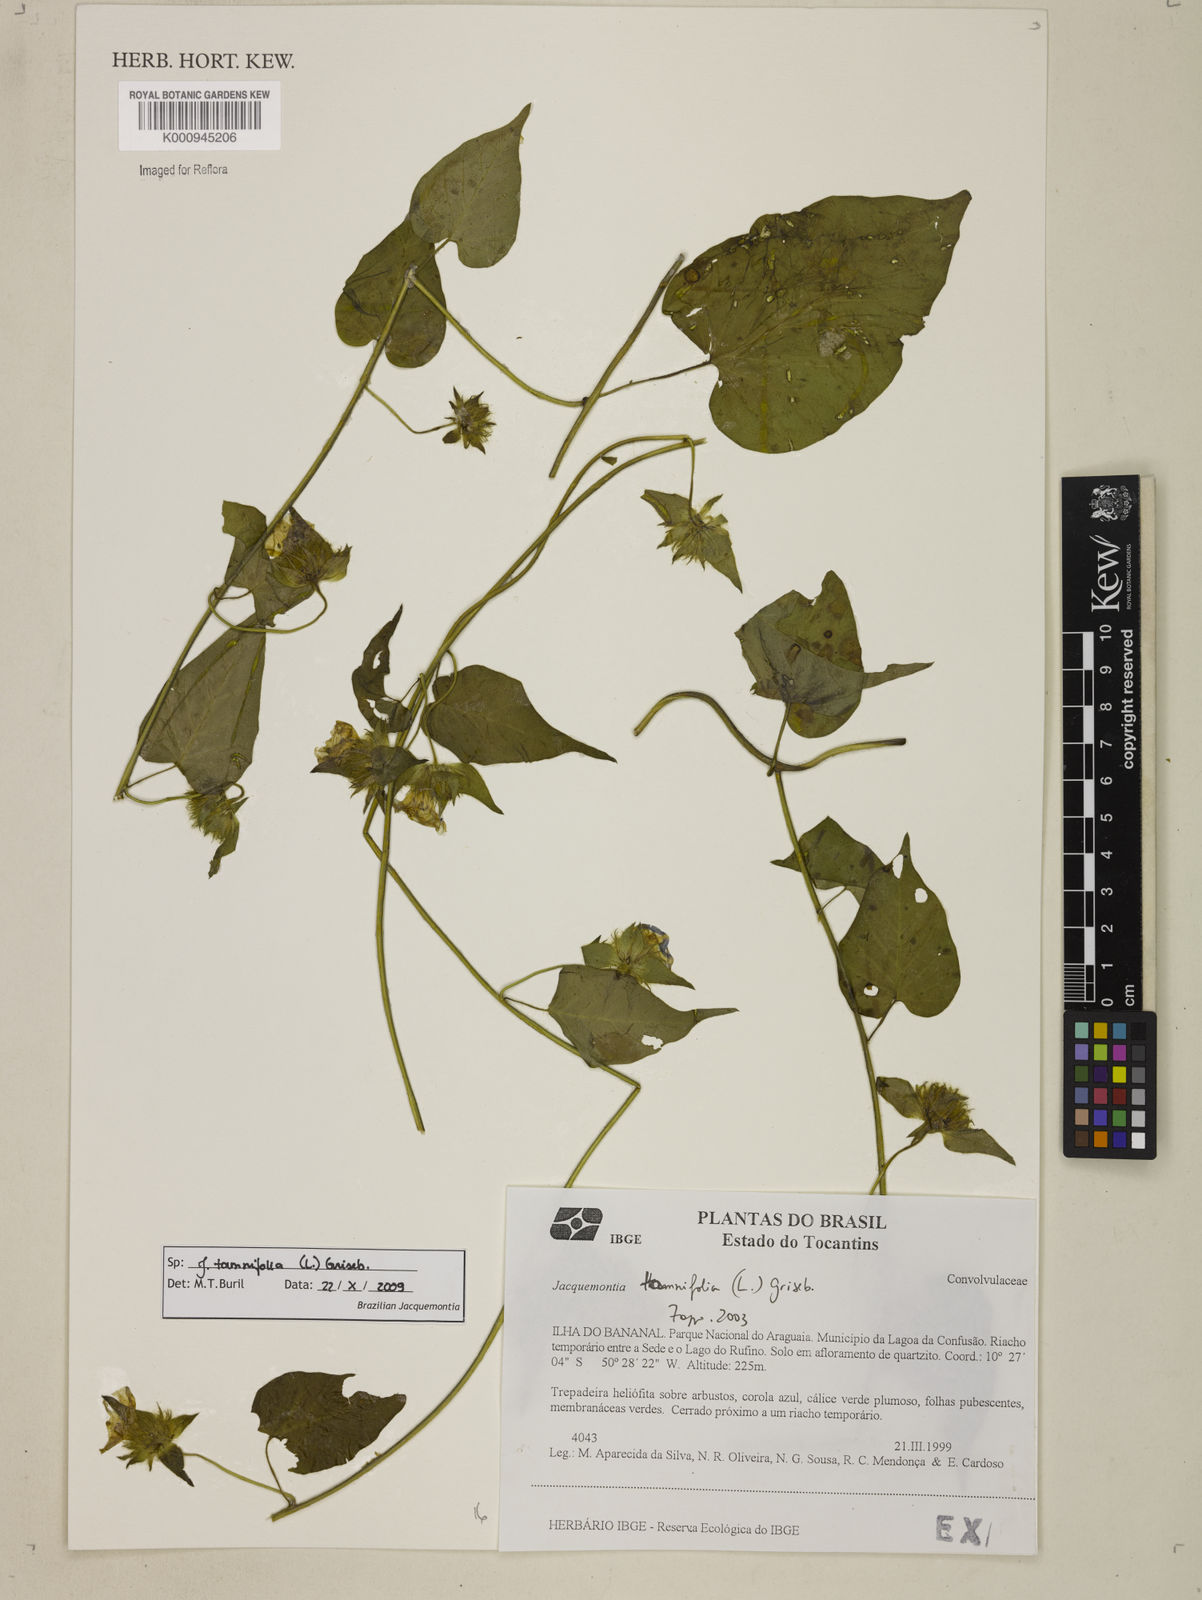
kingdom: Plantae
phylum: Tracheophyta
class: Magnoliopsida
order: Solanales
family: Convolvulaceae
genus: Jacquemontia
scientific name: Jacquemontia tamnifolia
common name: Hairy clustervine
